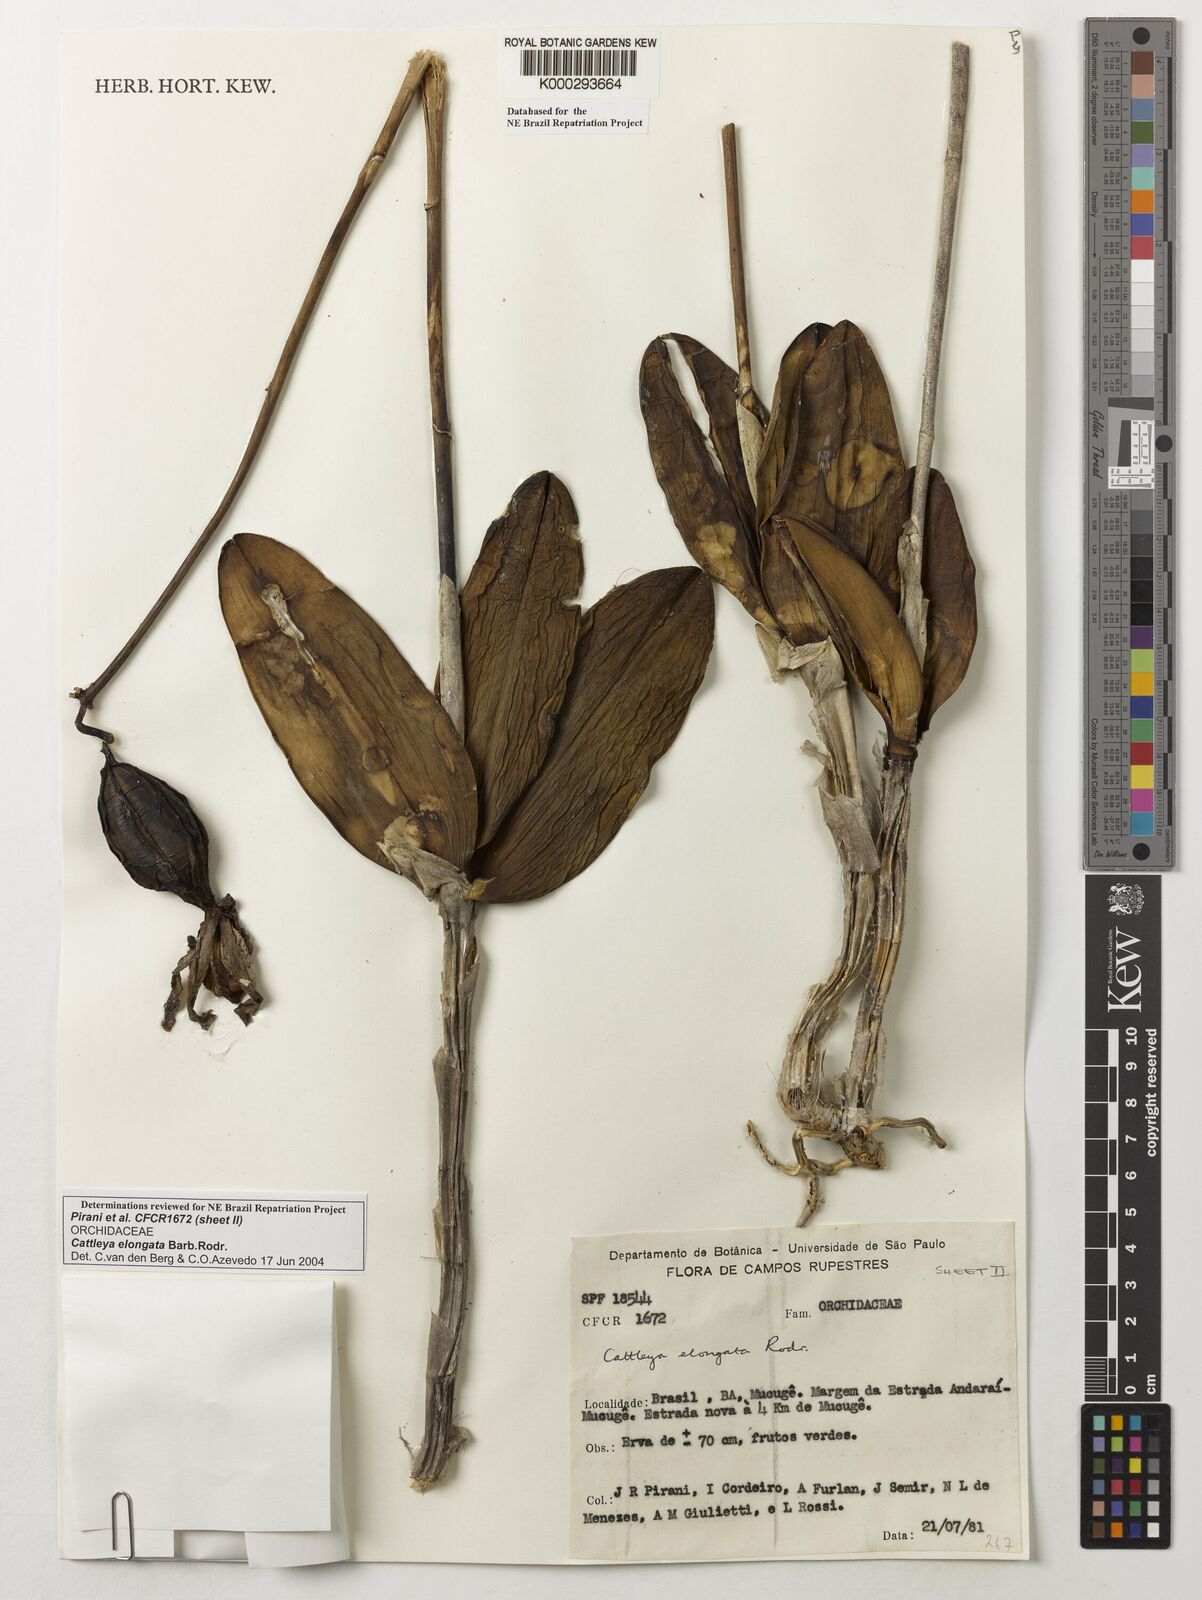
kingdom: Plantae
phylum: Tracheophyta
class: Liliopsida
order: Asparagales
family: Orchidaceae
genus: Cattleya
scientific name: Cattleya elongata
